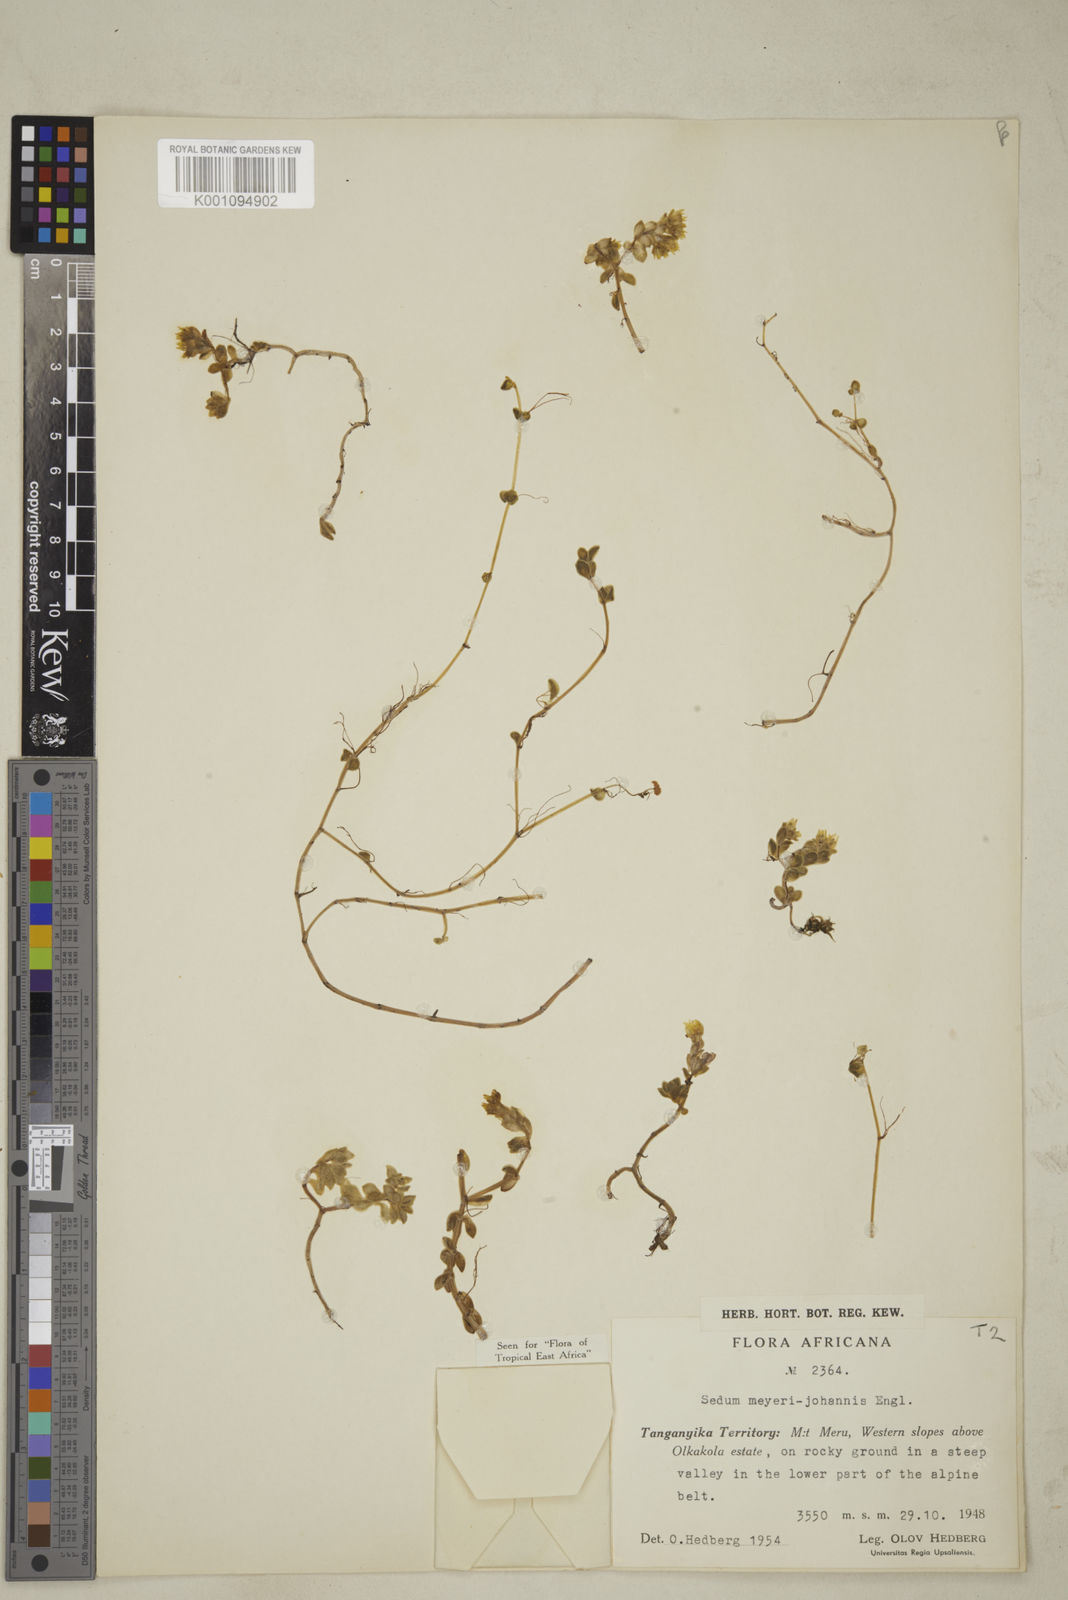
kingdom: Plantae
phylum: Tracheophyta
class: Magnoliopsida
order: Saxifragales
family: Crassulaceae
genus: Sedum
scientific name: Sedum meyeri-johannis
